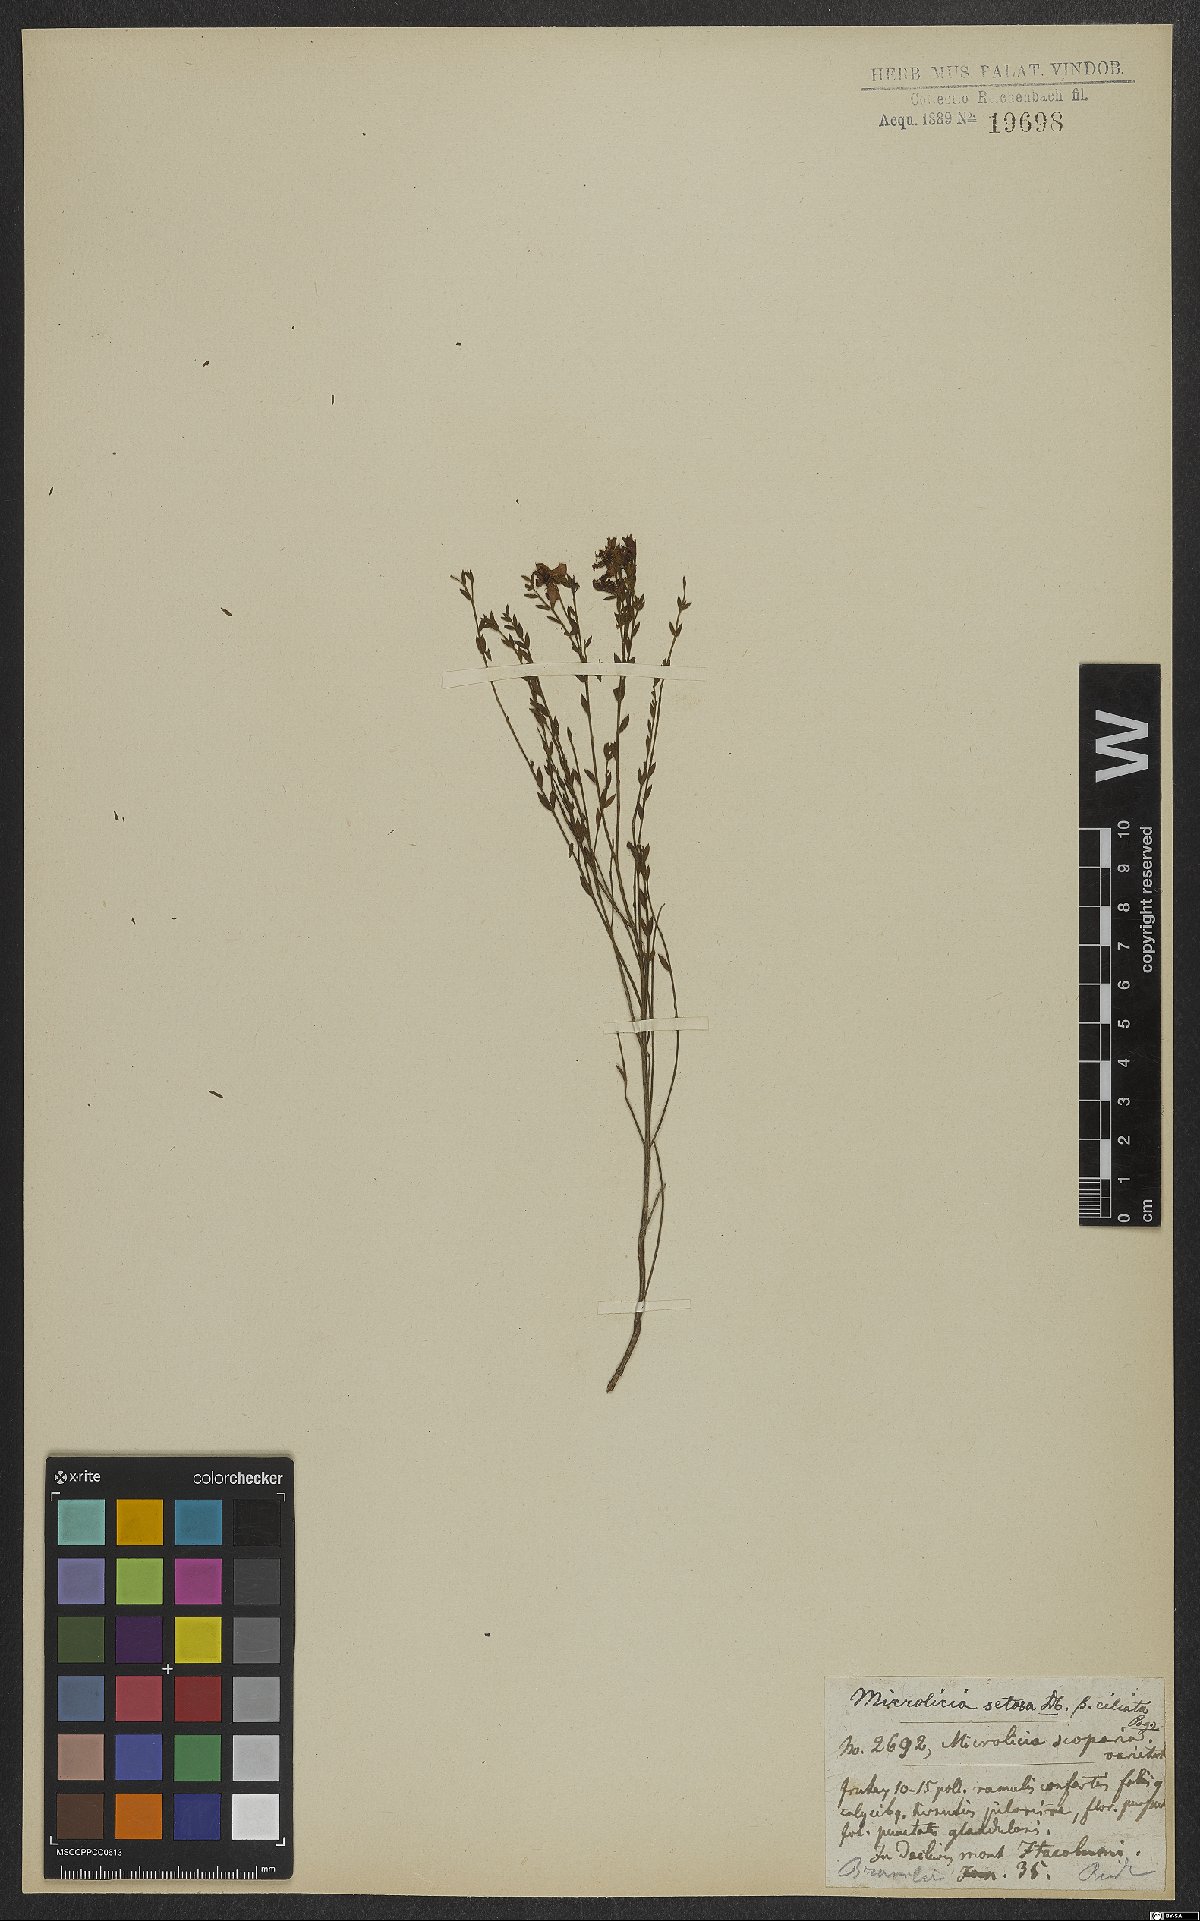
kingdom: Plantae
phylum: Tracheophyta
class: Magnoliopsida
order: Myrtales
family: Melastomataceae
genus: Microlicia
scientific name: Microlicia setosa
